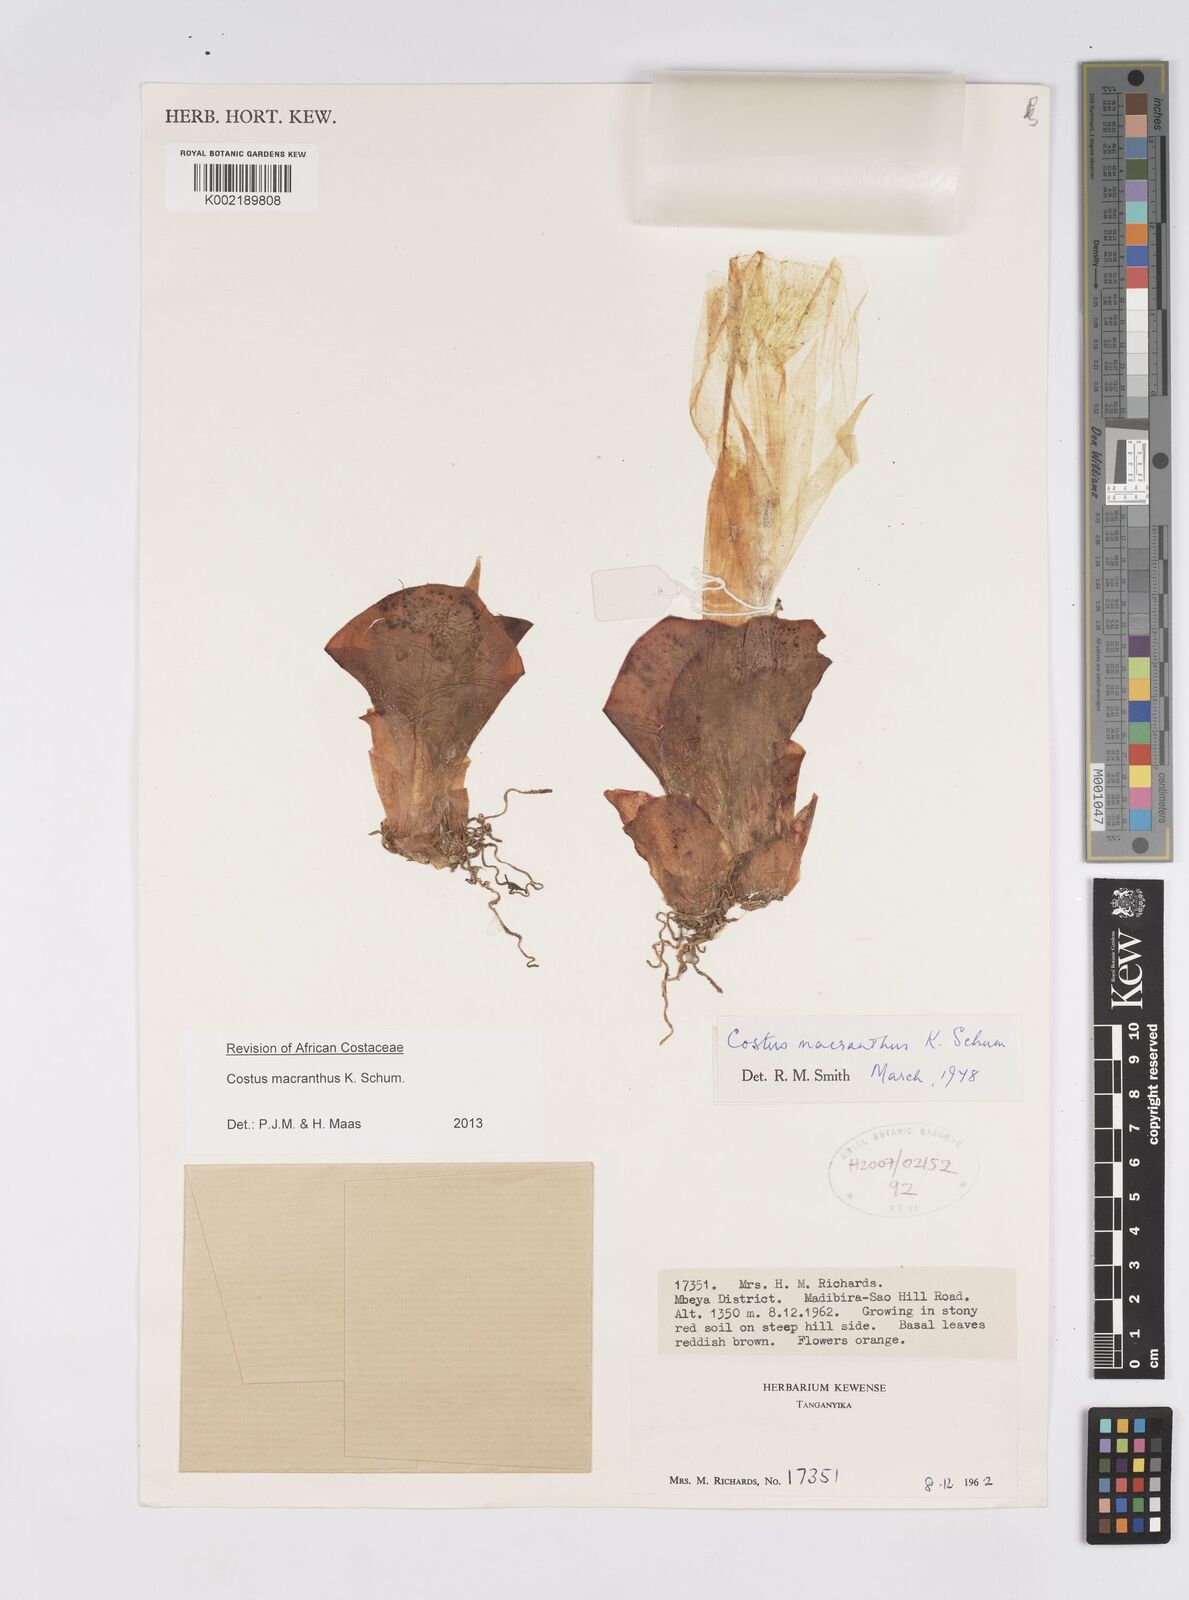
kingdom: Plantae
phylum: Tracheophyta
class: Liliopsida
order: Zingiberales
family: Costaceae
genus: Costus
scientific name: Costus macranthus
